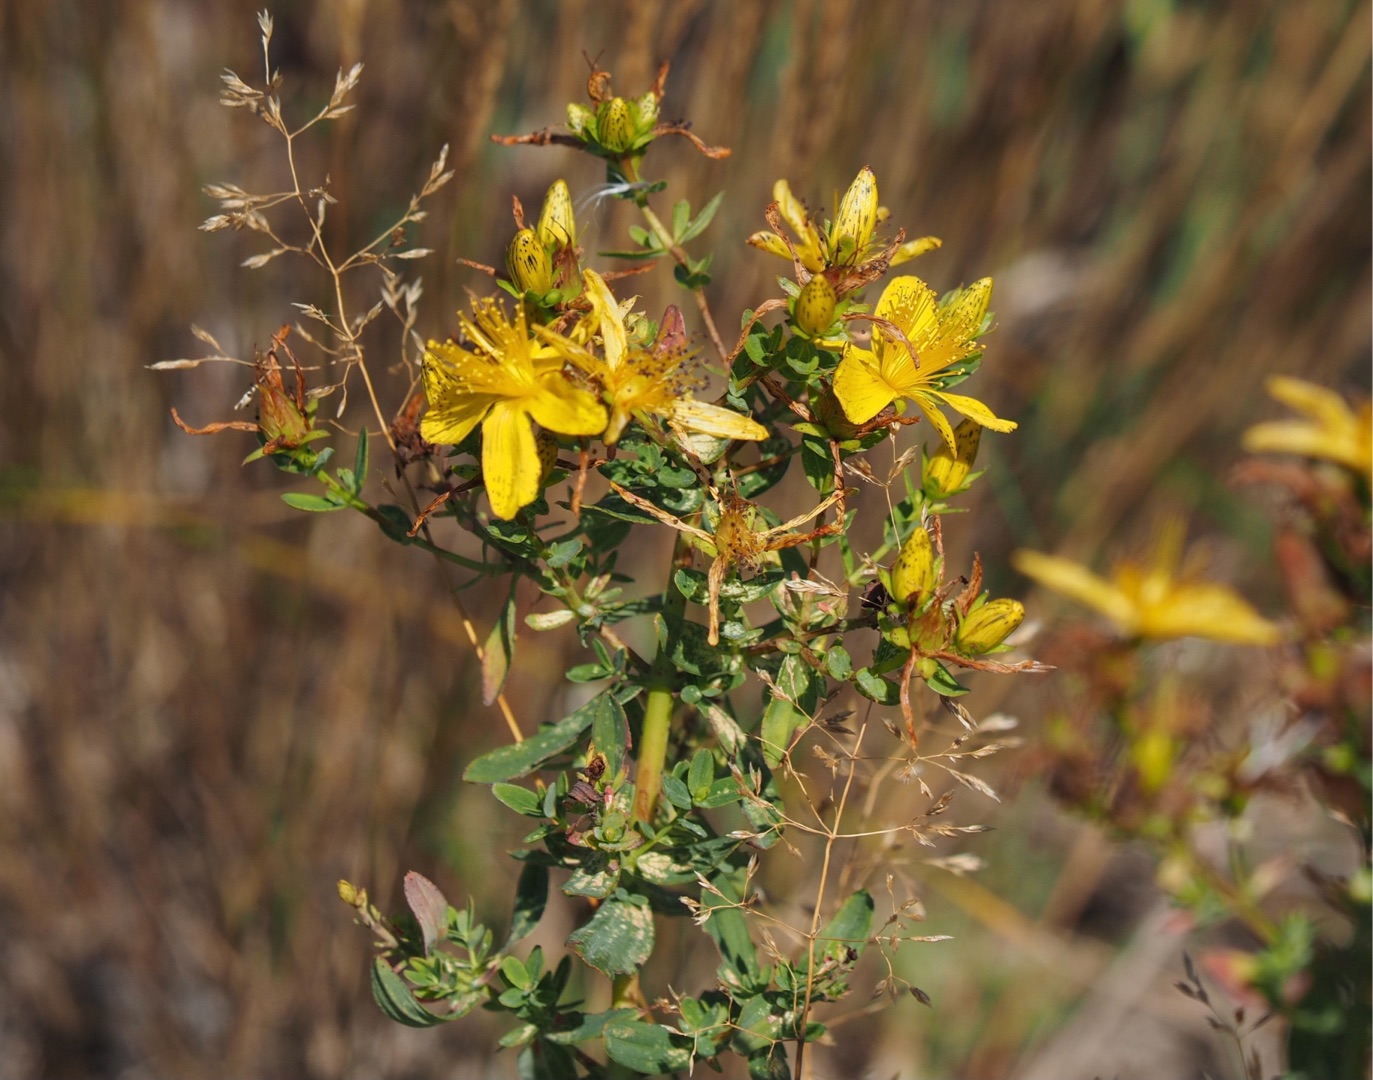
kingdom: Plantae
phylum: Tracheophyta
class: Magnoliopsida
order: Malpighiales
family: Hypericaceae
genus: Hypericum
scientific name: Hypericum perforatum
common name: Prikbladet perikon
